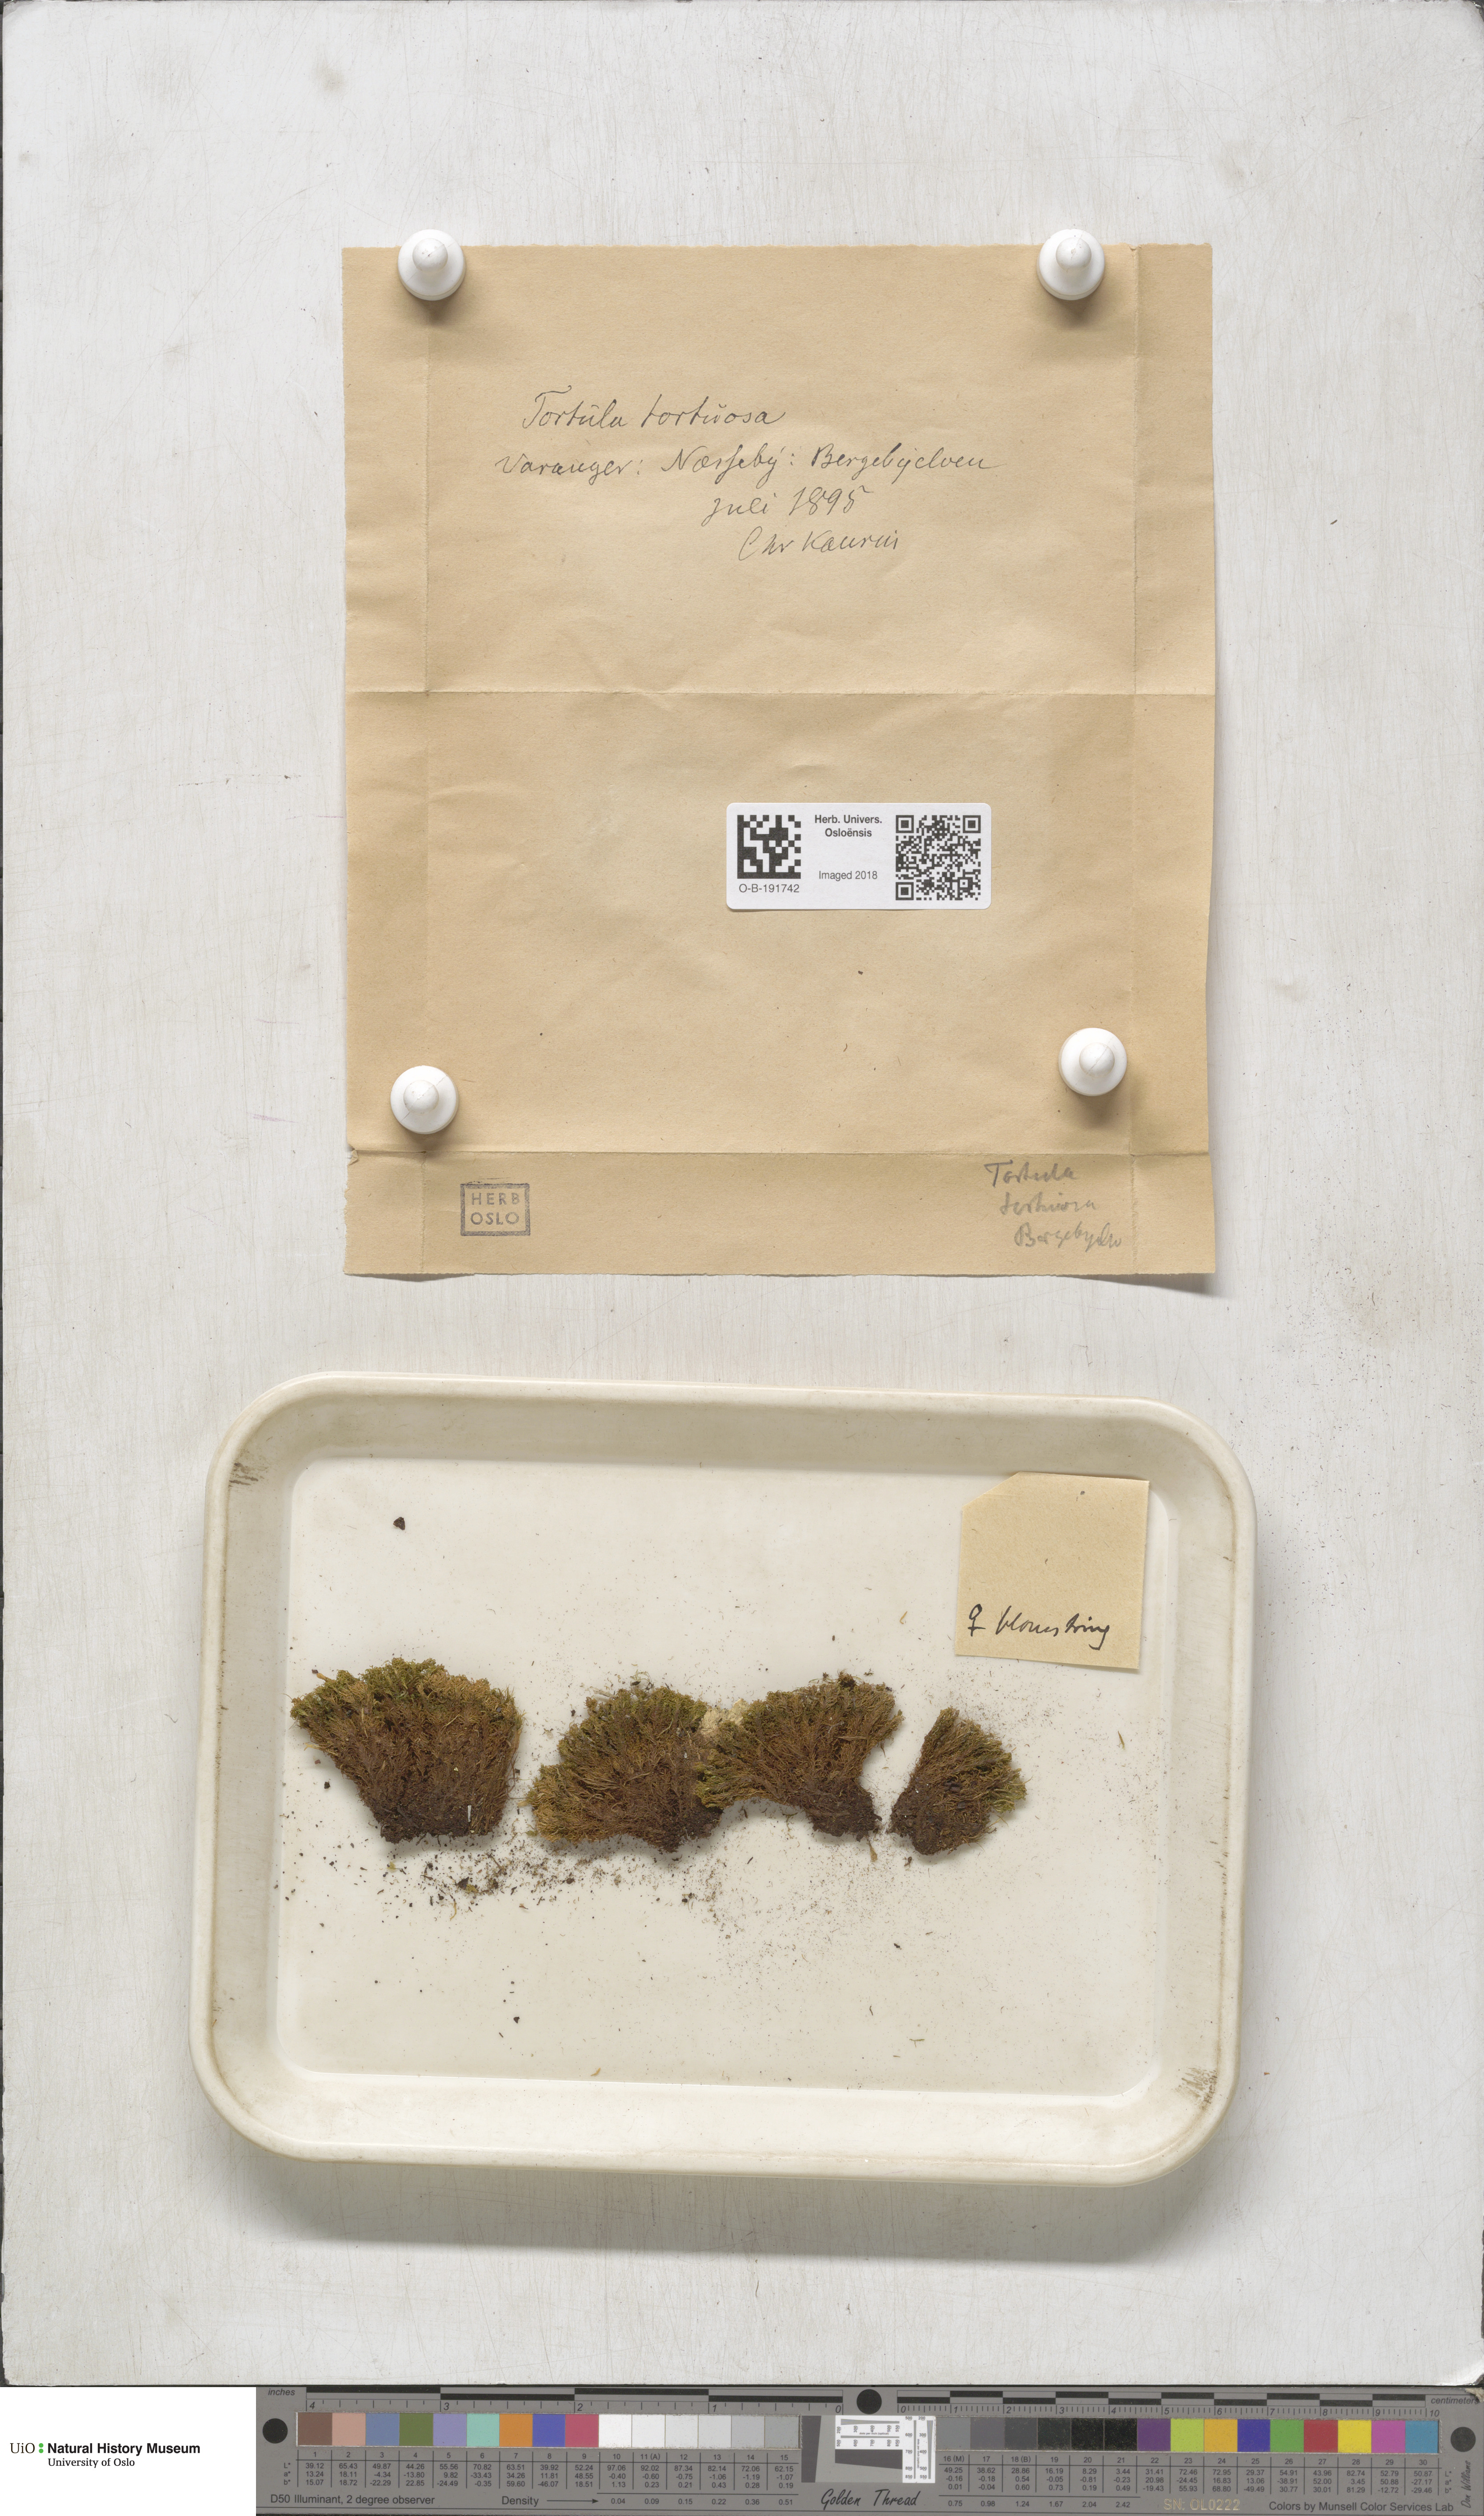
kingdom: Plantae
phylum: Bryophyta
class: Bryopsida
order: Pottiales
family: Pottiaceae
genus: Tortella
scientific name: Tortella tortuosa
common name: Frizzled crisp moss
